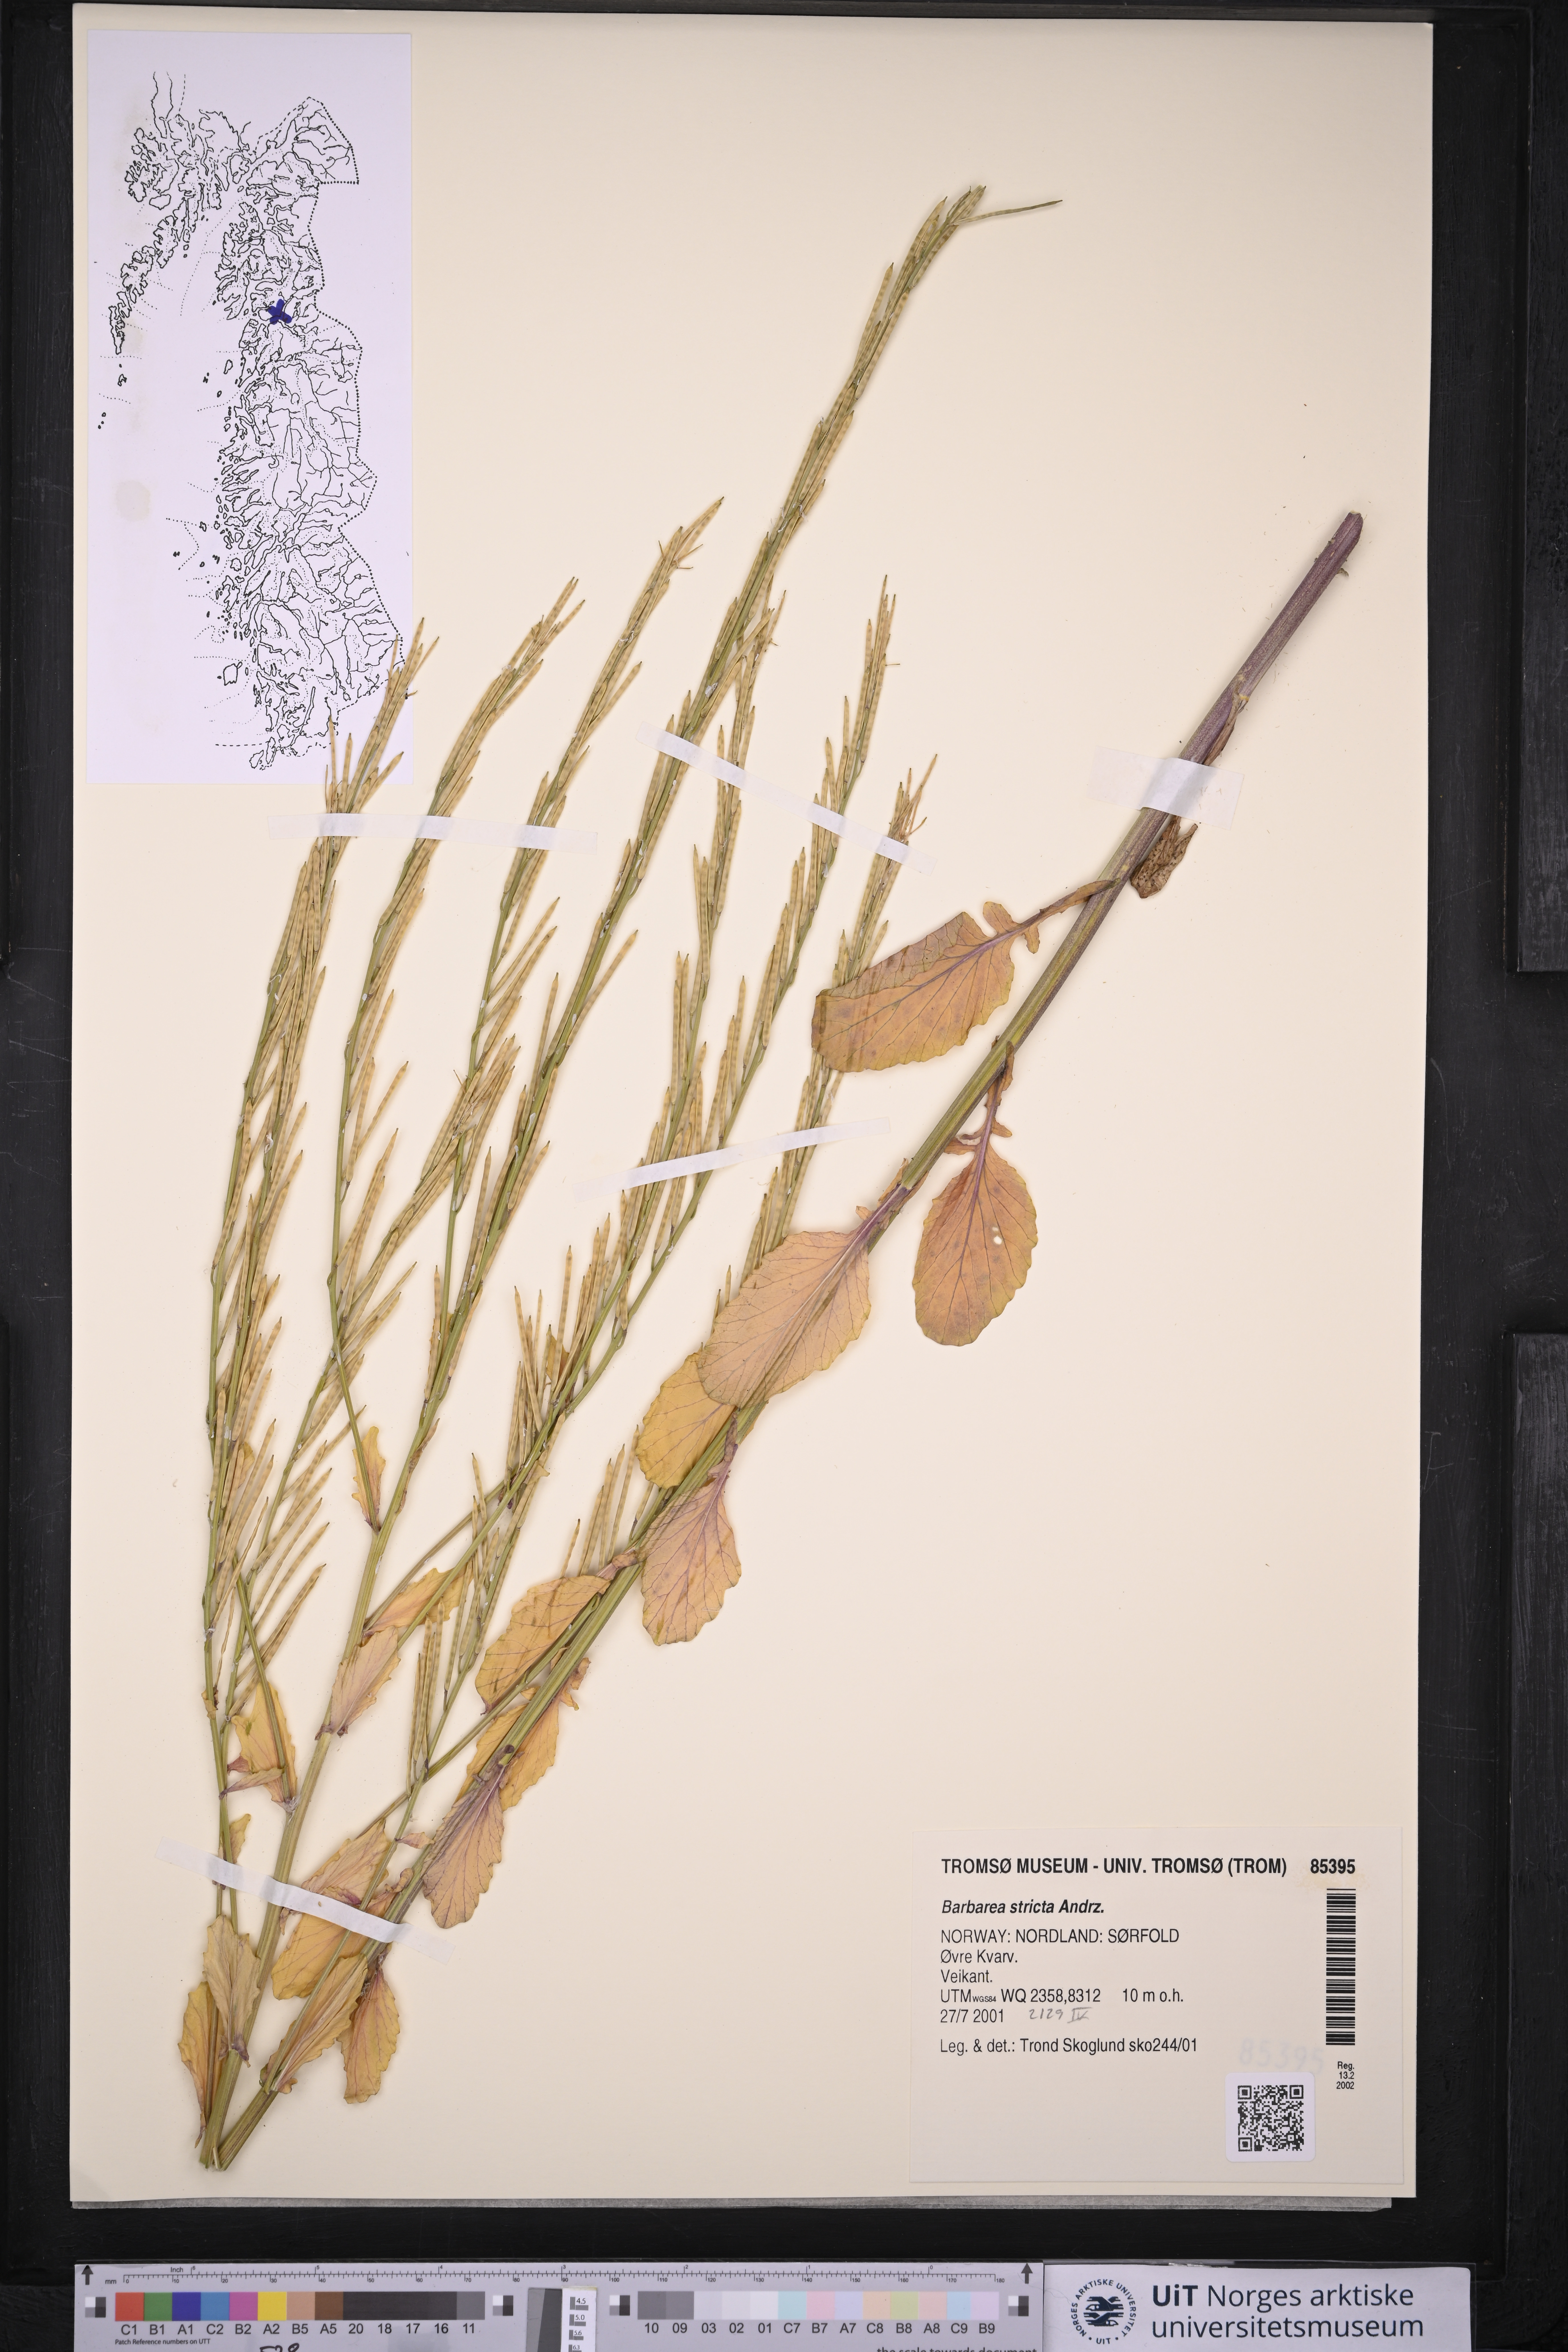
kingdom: Plantae
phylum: Tracheophyta
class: Magnoliopsida
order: Brassicales
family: Brassicaceae
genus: Barbarea
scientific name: Barbarea stricta
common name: Small-flowered winter-cress
